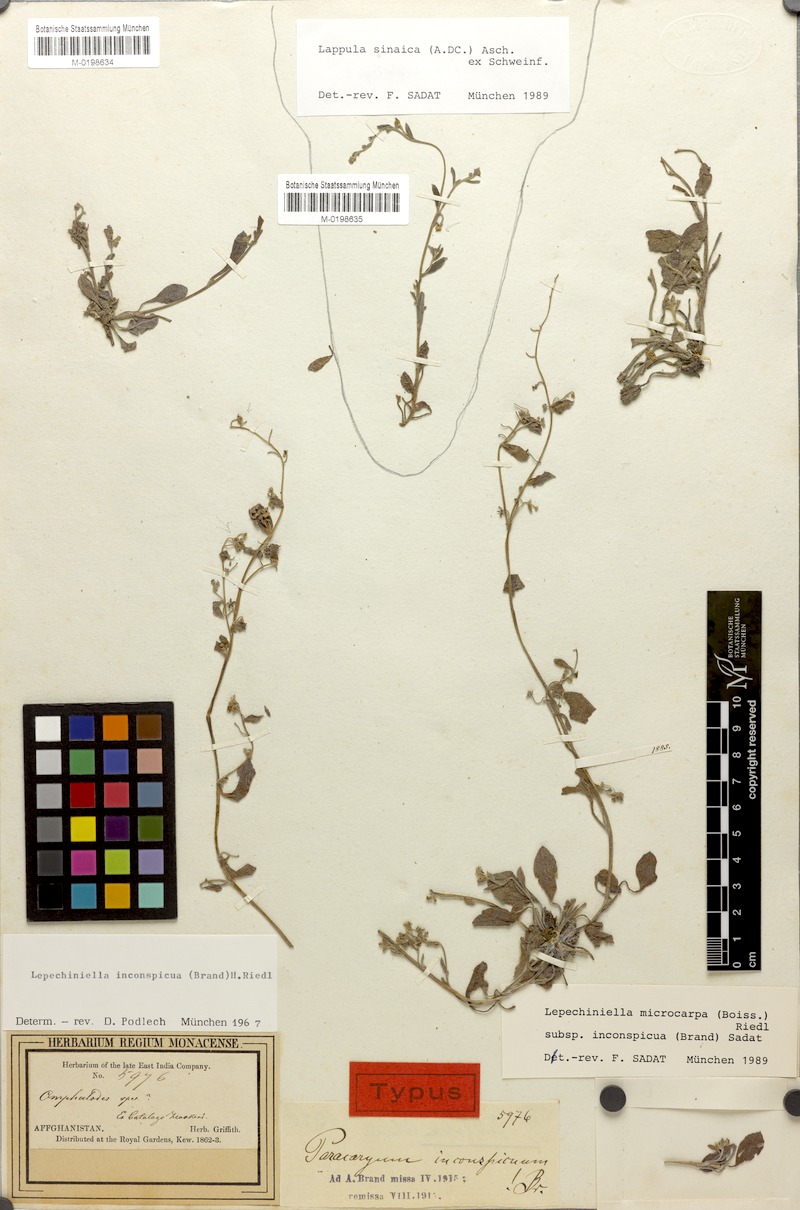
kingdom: Plantae
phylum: Tracheophyta
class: Magnoliopsida
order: Boraginales
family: Boraginaceae
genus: Pseudolappula
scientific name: Pseudolappula sinaica
